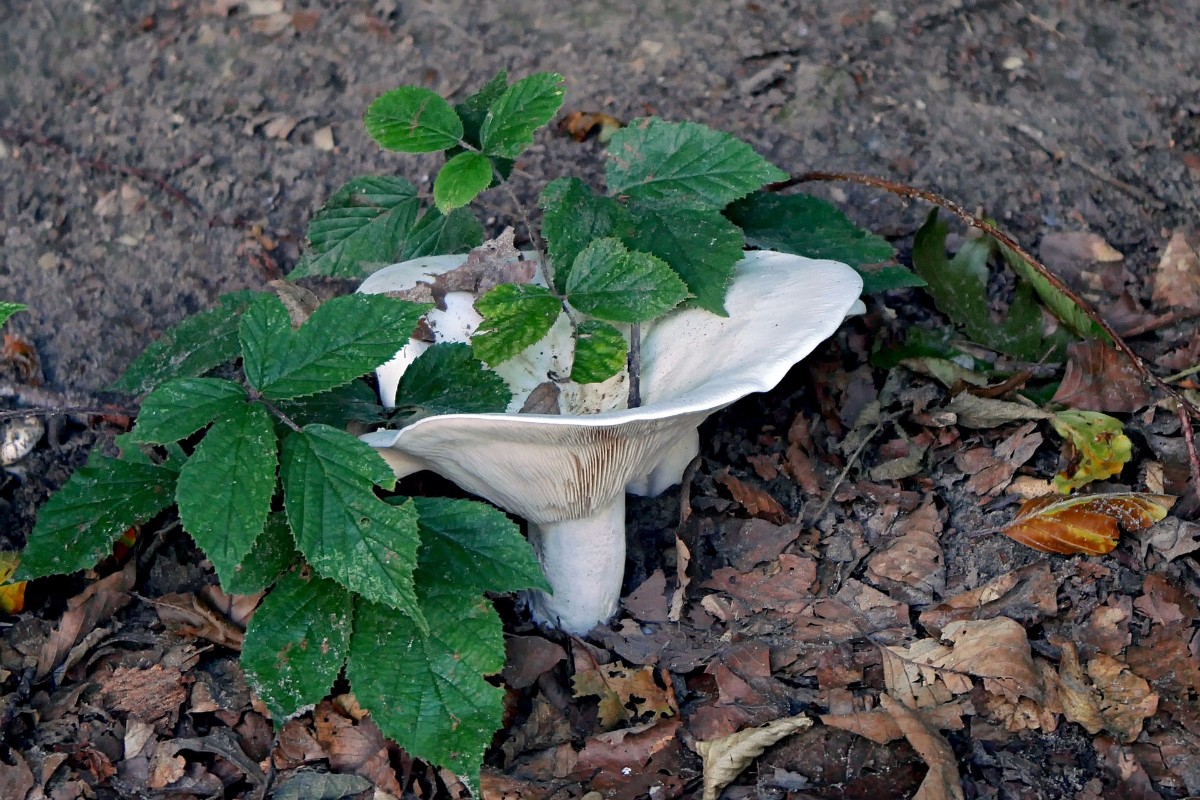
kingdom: Fungi
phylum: Basidiomycota
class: Agaricomycetes
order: Agaricales
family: Tricholomataceae
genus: Aspropaxillus
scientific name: Aspropaxillus giganteus
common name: kæmpe-tragtridderhat
